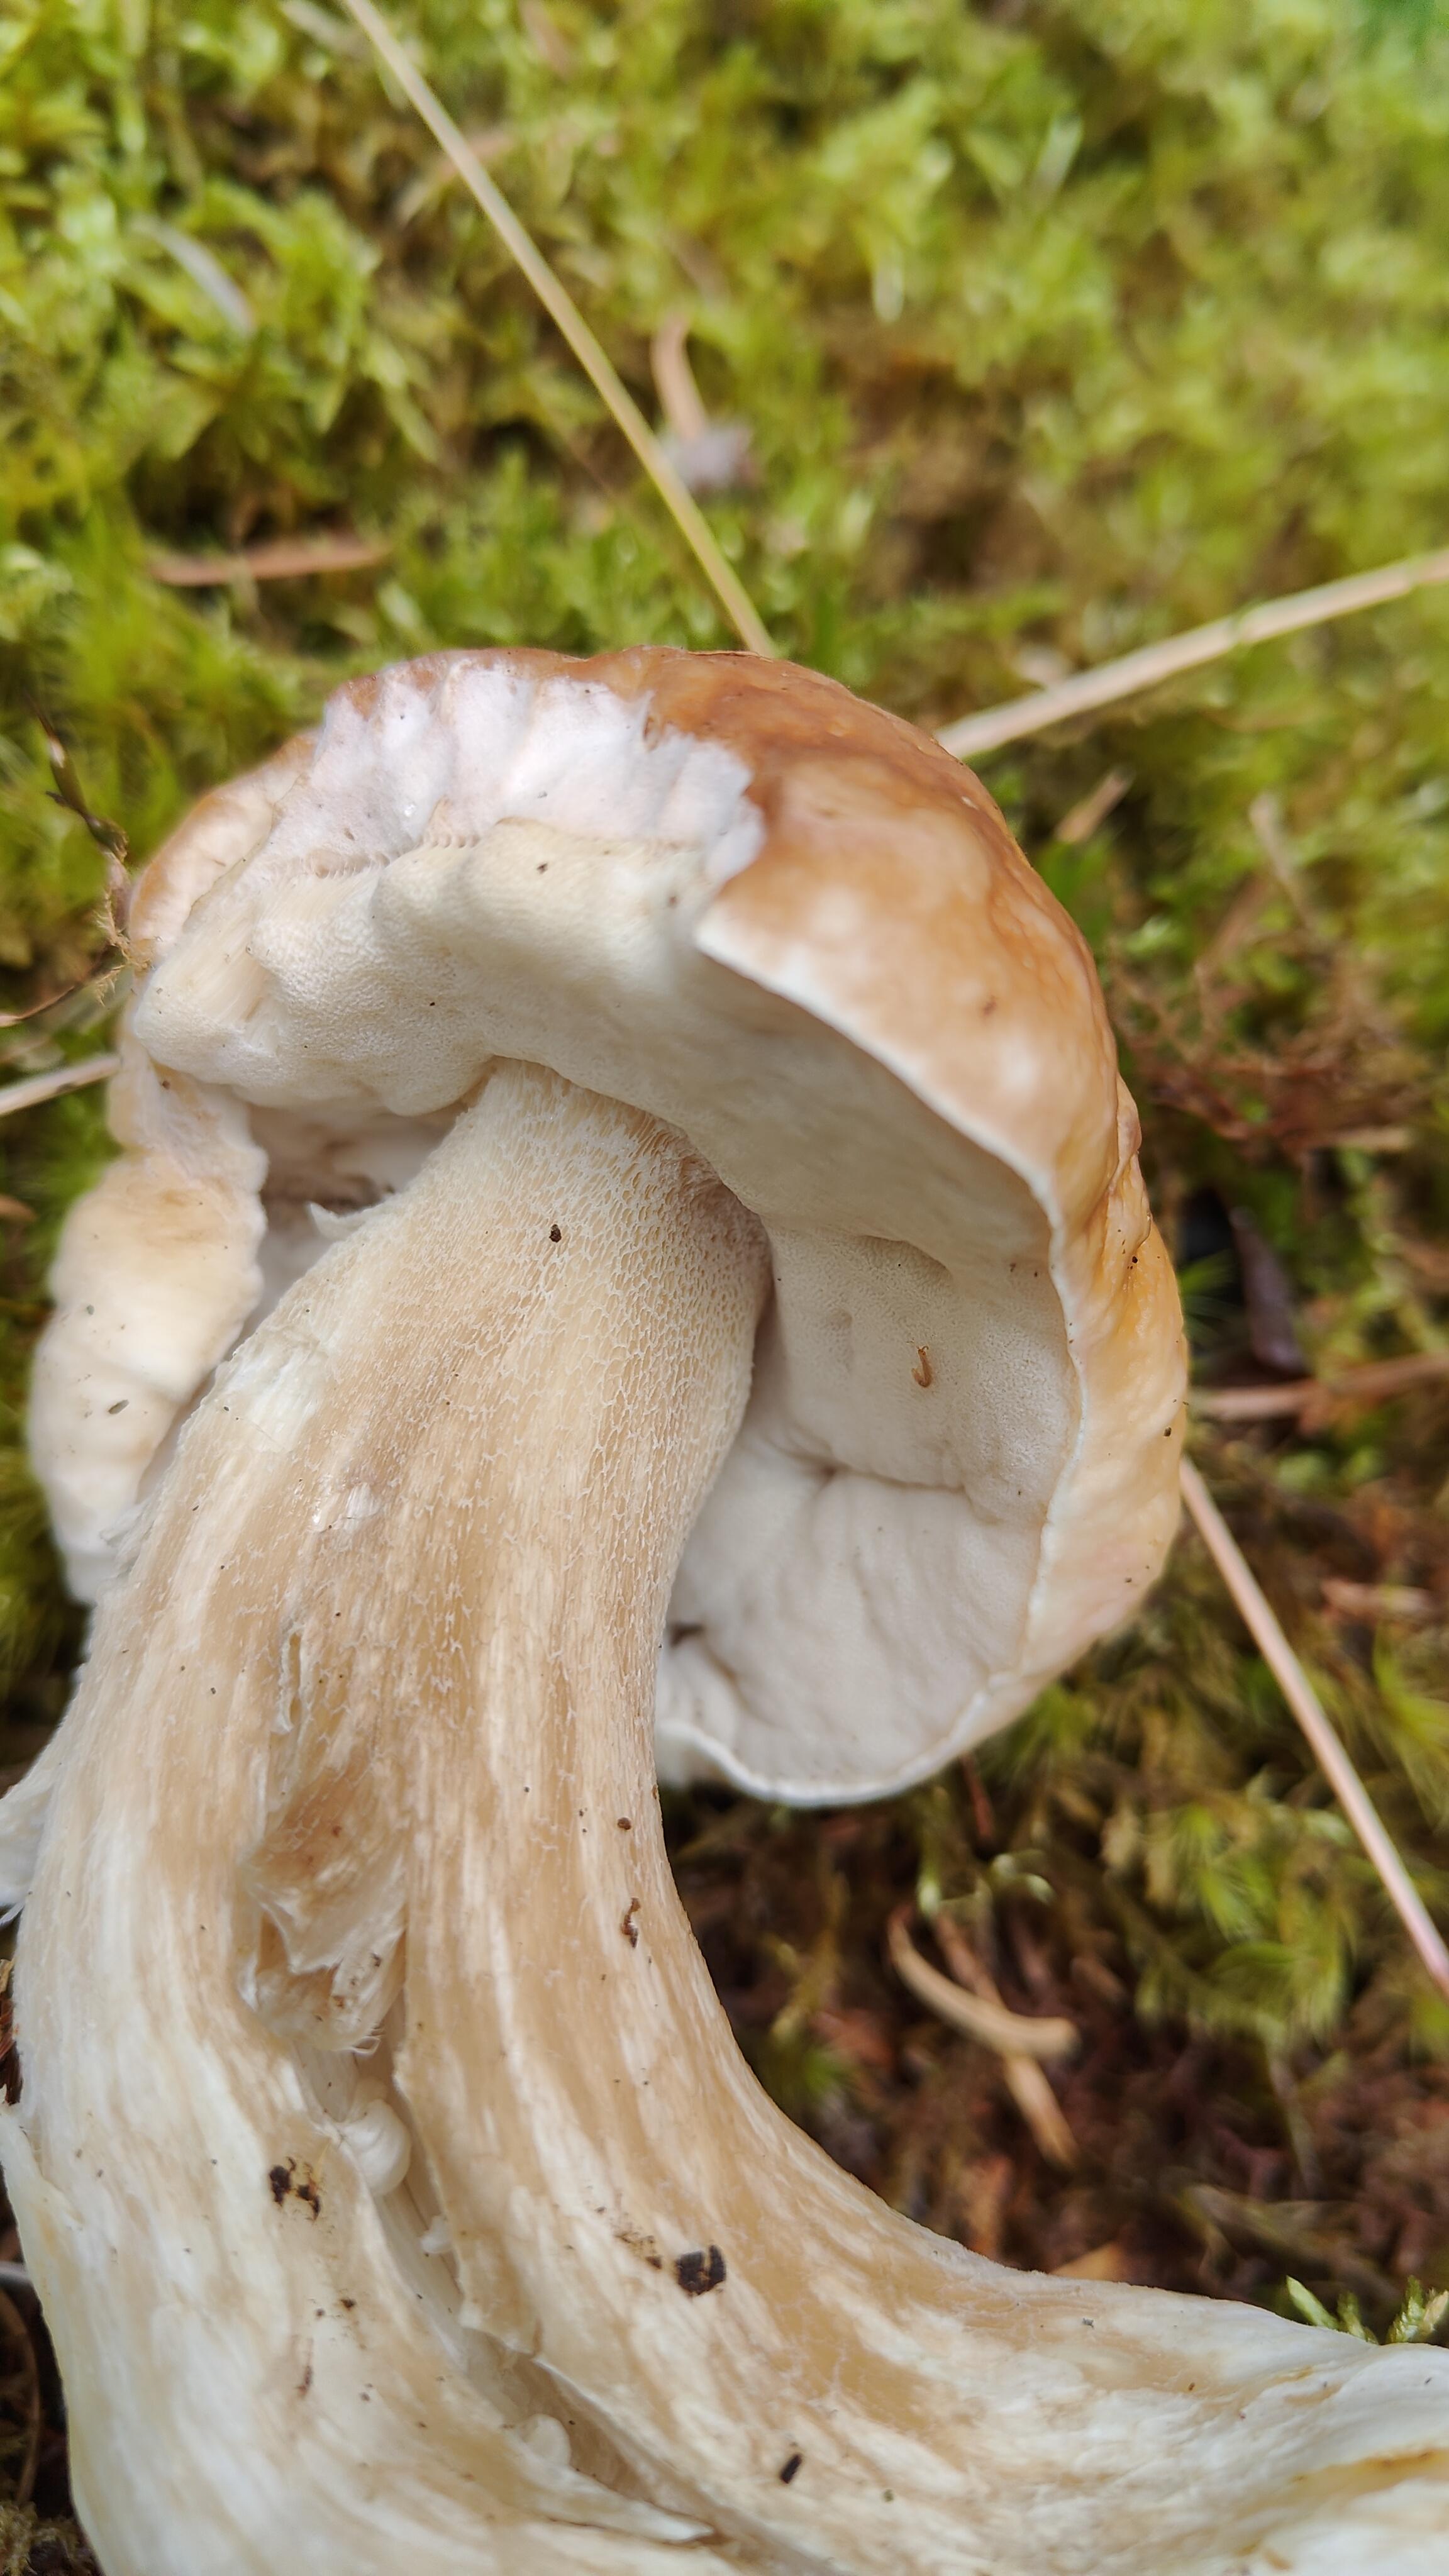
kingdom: Fungi
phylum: Basidiomycota
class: Agaricomycetes
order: Boletales
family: Boletaceae
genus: Boletus
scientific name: Boletus edulis
